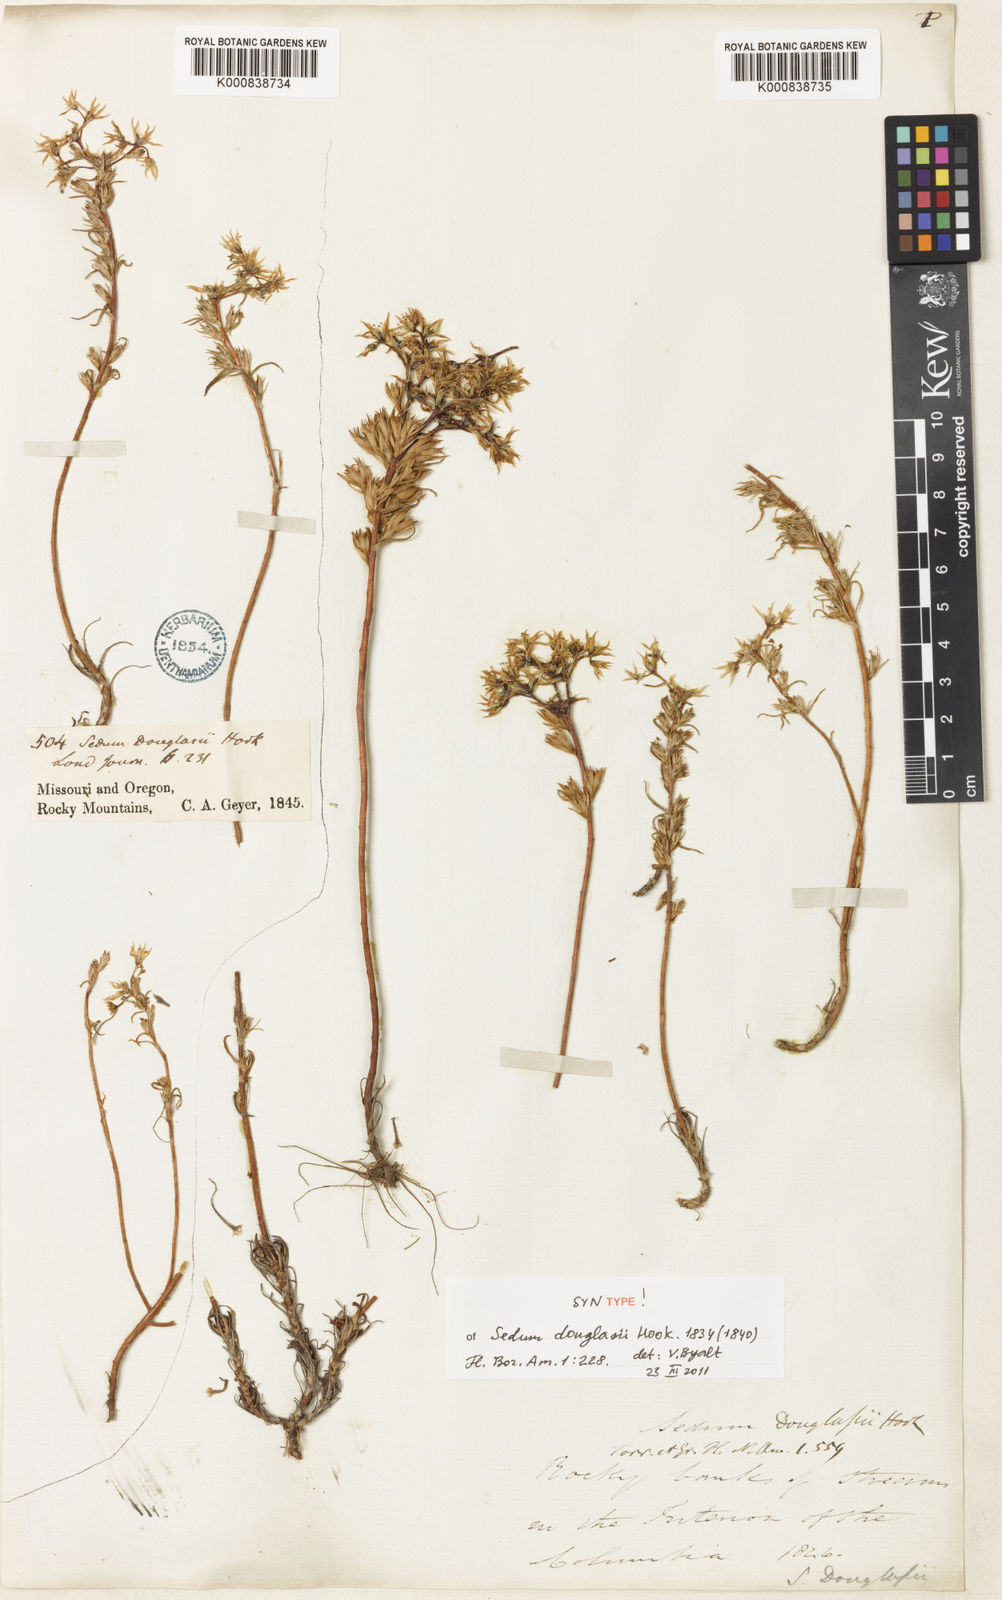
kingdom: Plantae
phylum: Tracheophyta
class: Magnoliopsida
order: Saxifragales
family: Crassulaceae
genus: Sedum
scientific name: Sedum stenopetalum
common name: Narrow-petaled stonecrop
